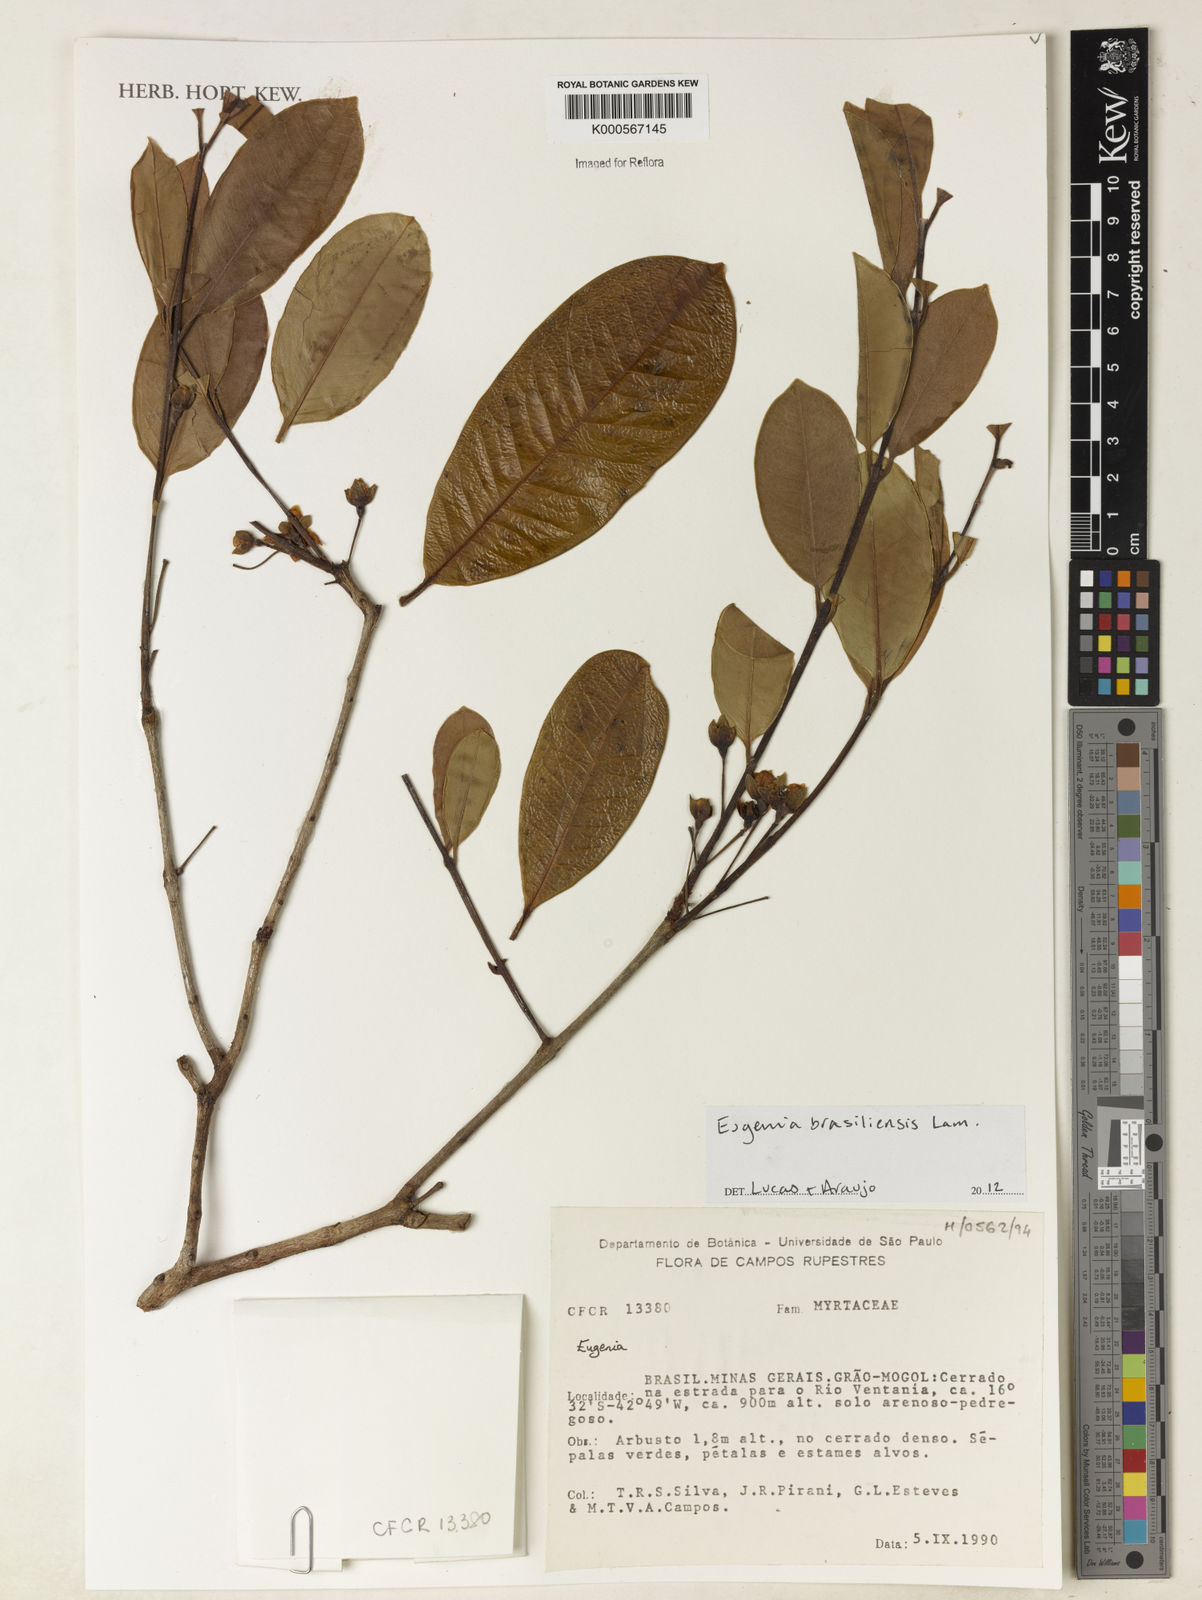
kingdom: Plantae
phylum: Tracheophyta
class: Magnoliopsida
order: Myrtales
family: Myrtaceae
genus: Eugenia
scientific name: Eugenia brasiliensis
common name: Grumichama
